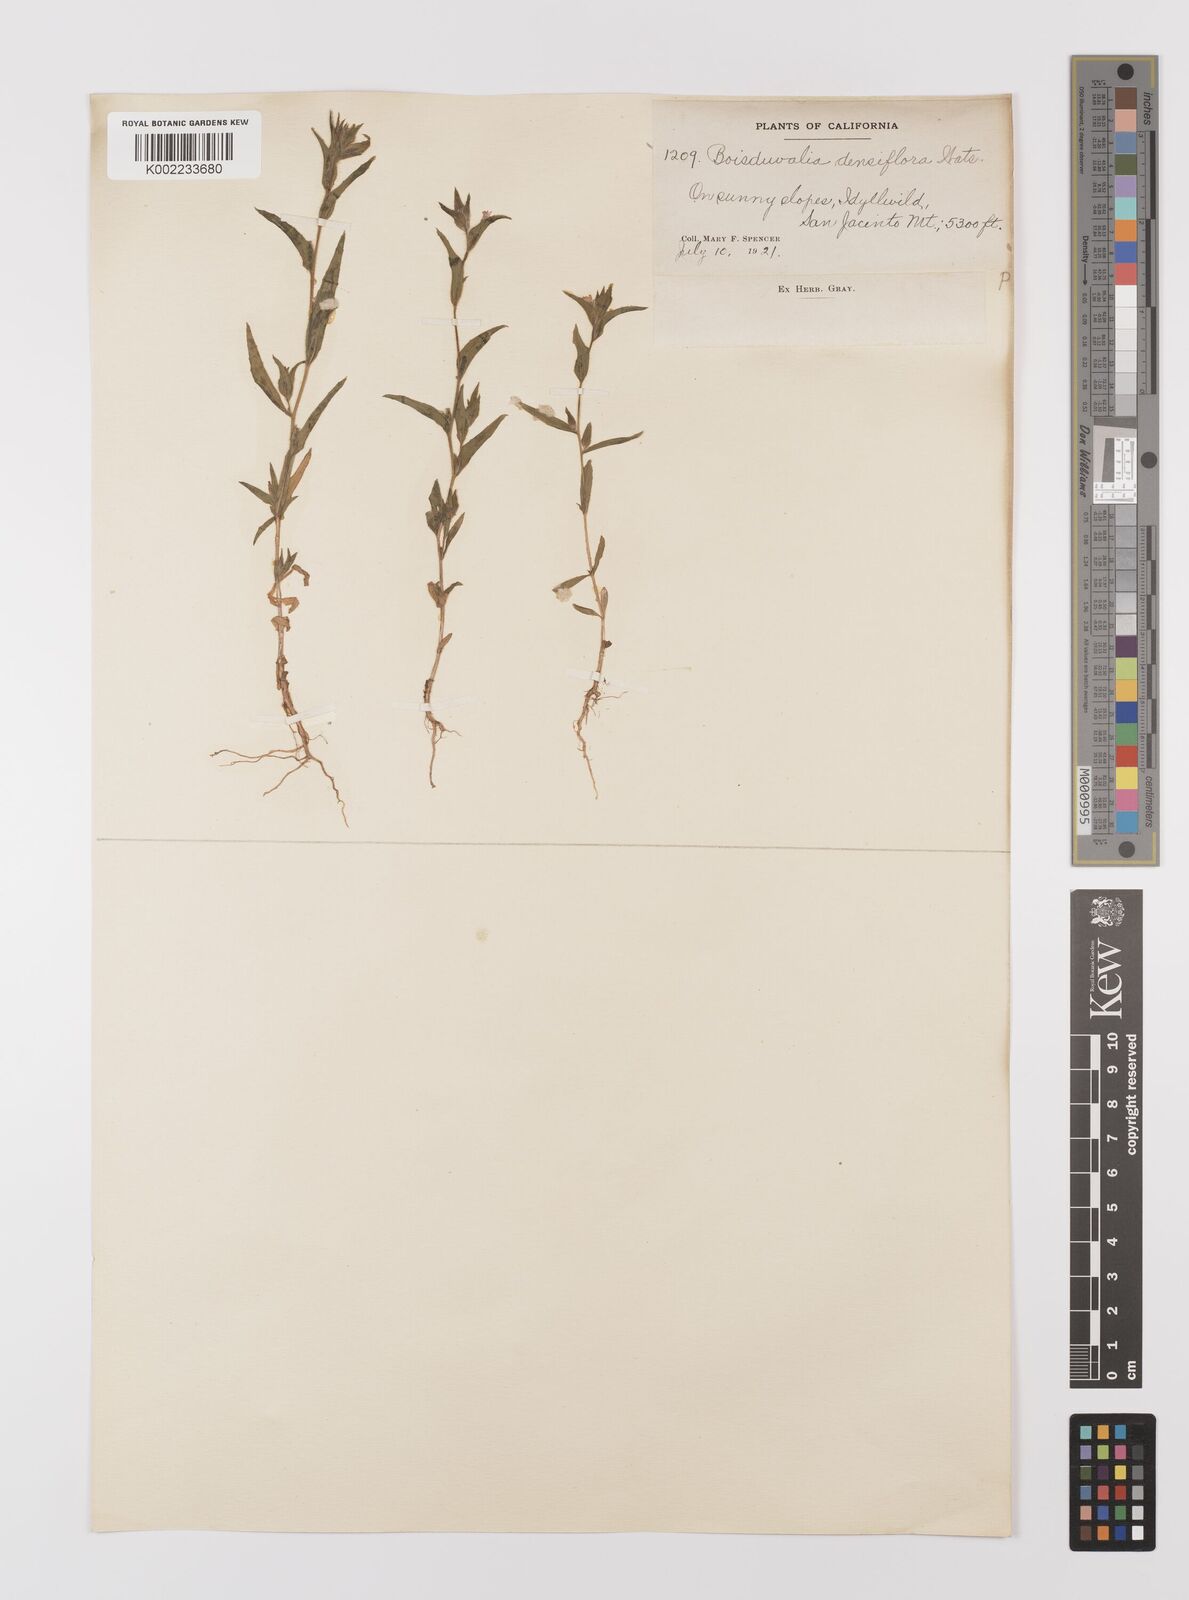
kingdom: Plantae
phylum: Tracheophyta
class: Magnoliopsida
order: Myrtales
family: Onagraceae
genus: Epilobium
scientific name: Epilobium densiflorum
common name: Dense spike-primrose
